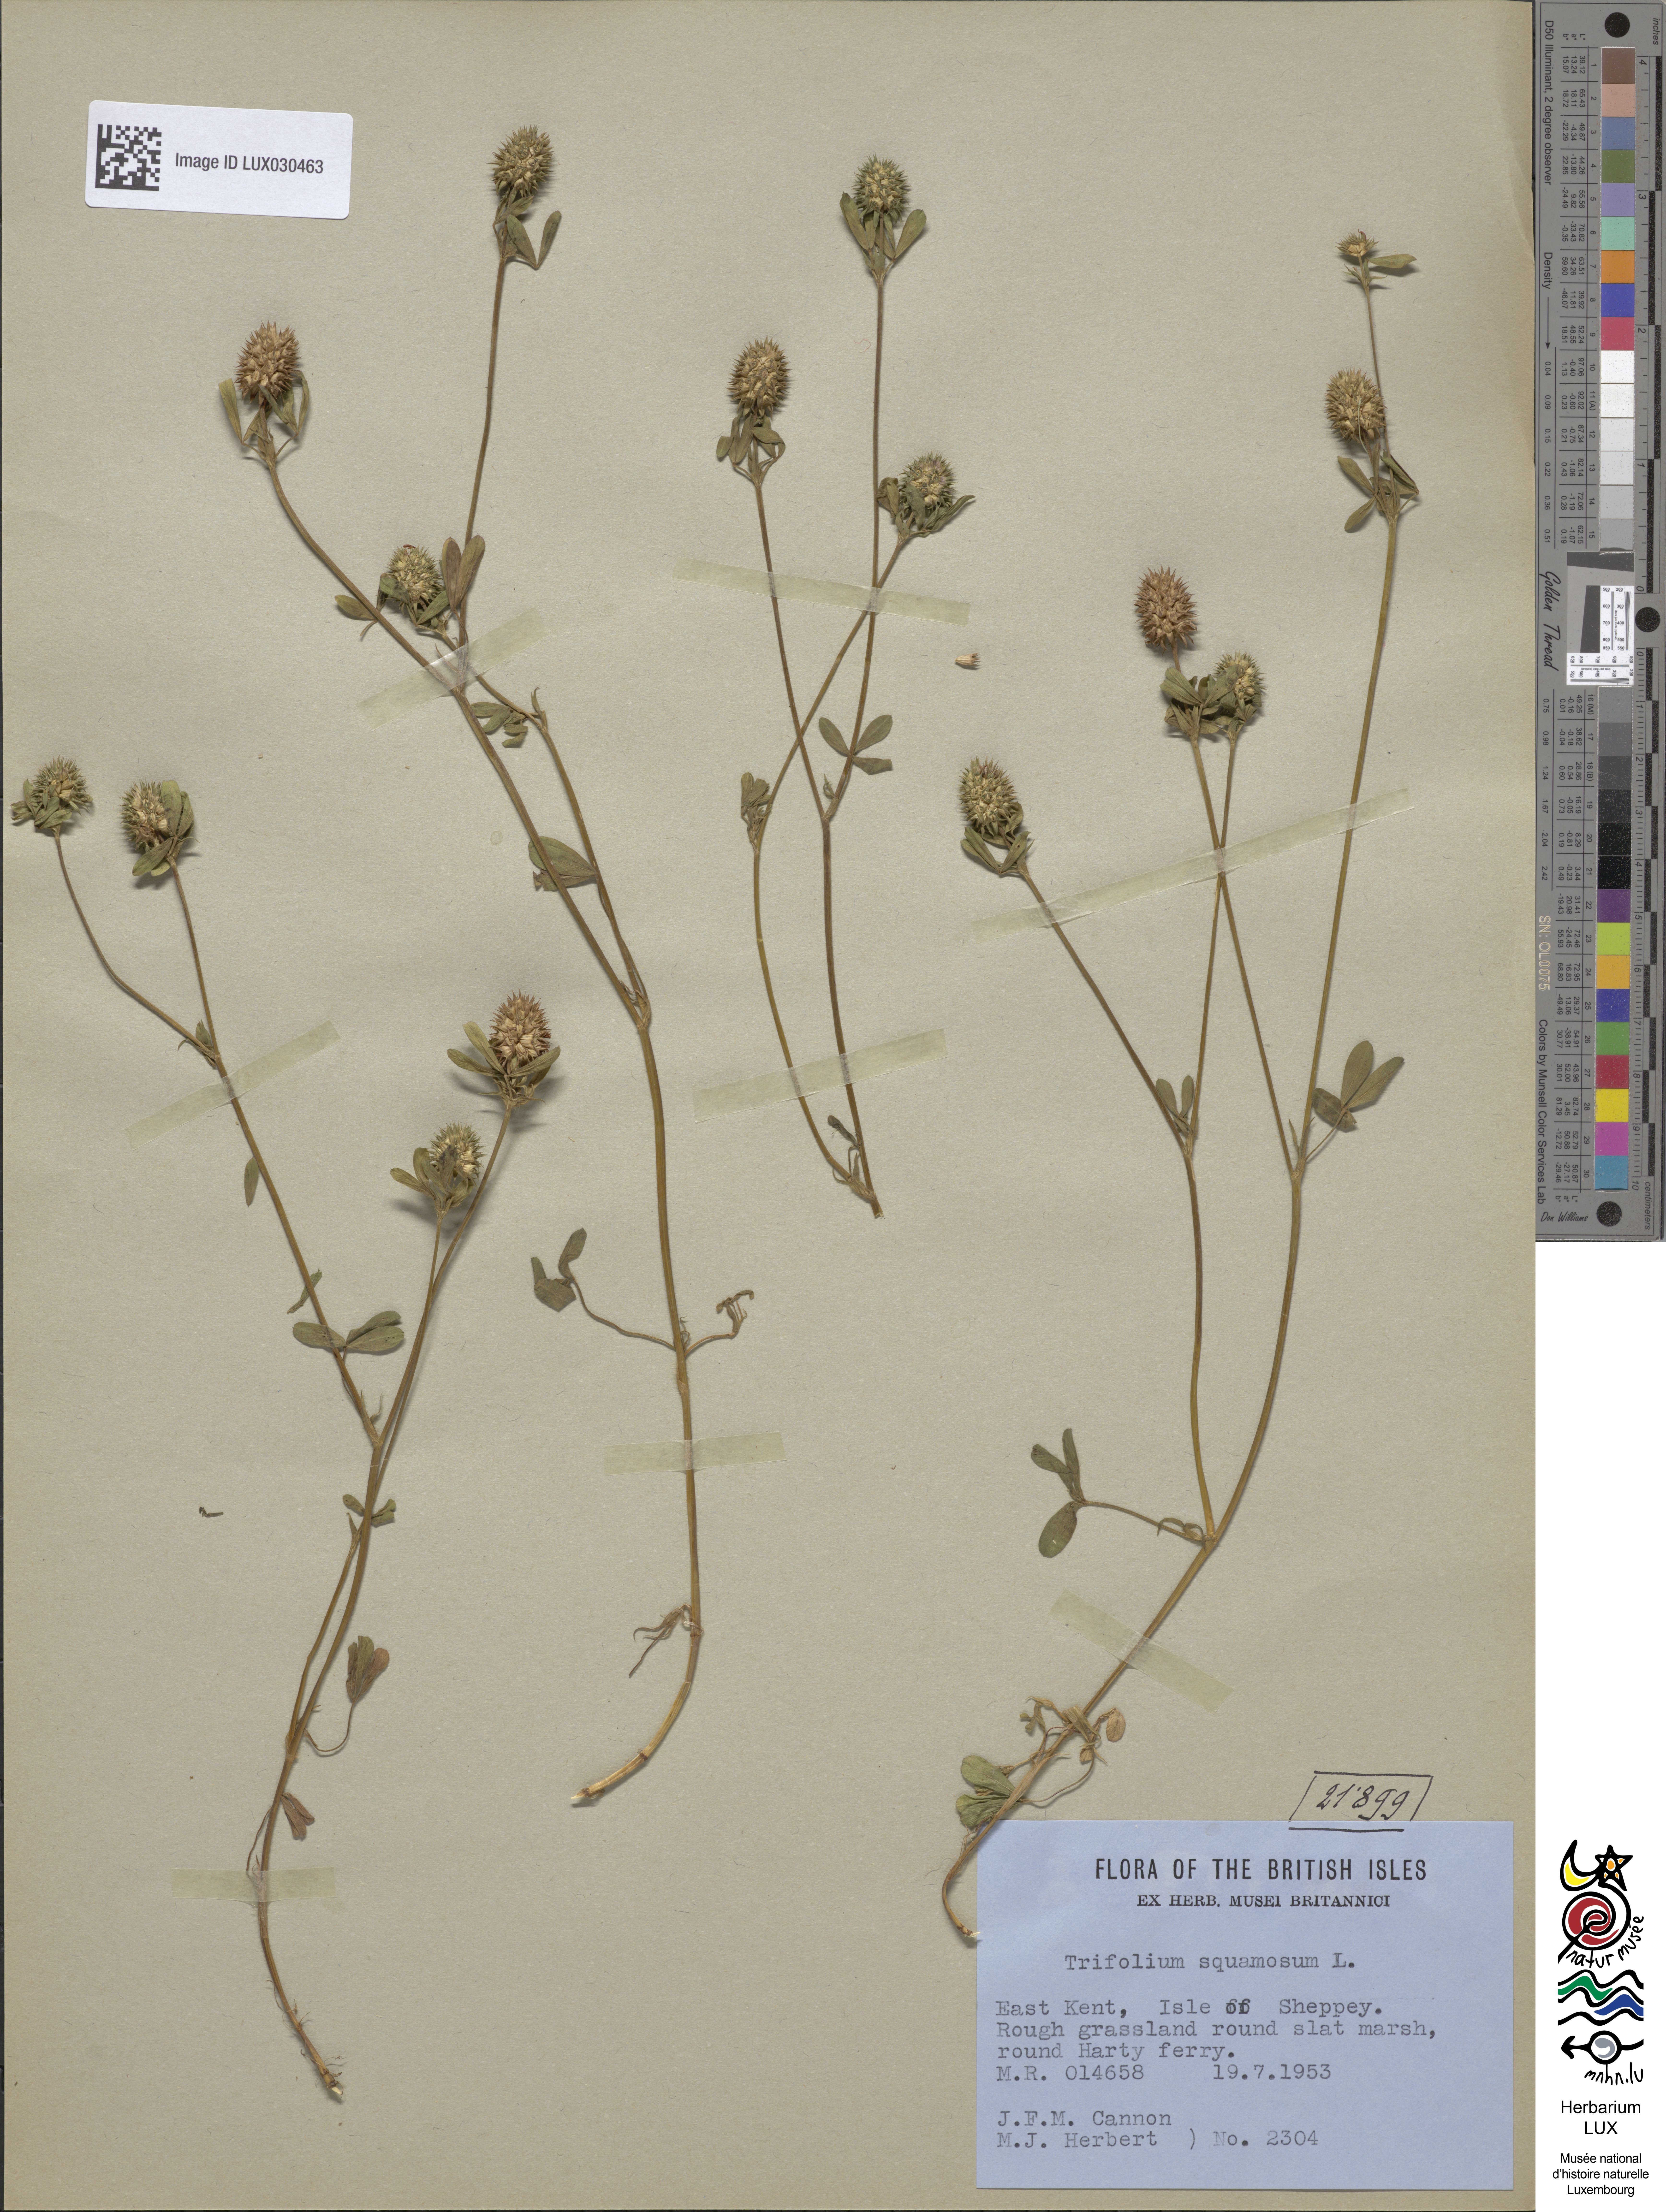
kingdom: Plantae
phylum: Tracheophyta
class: Magnoliopsida
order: Fabales
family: Fabaceae
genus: Trifolium
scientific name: Trifolium squamosum
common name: Sea clover
